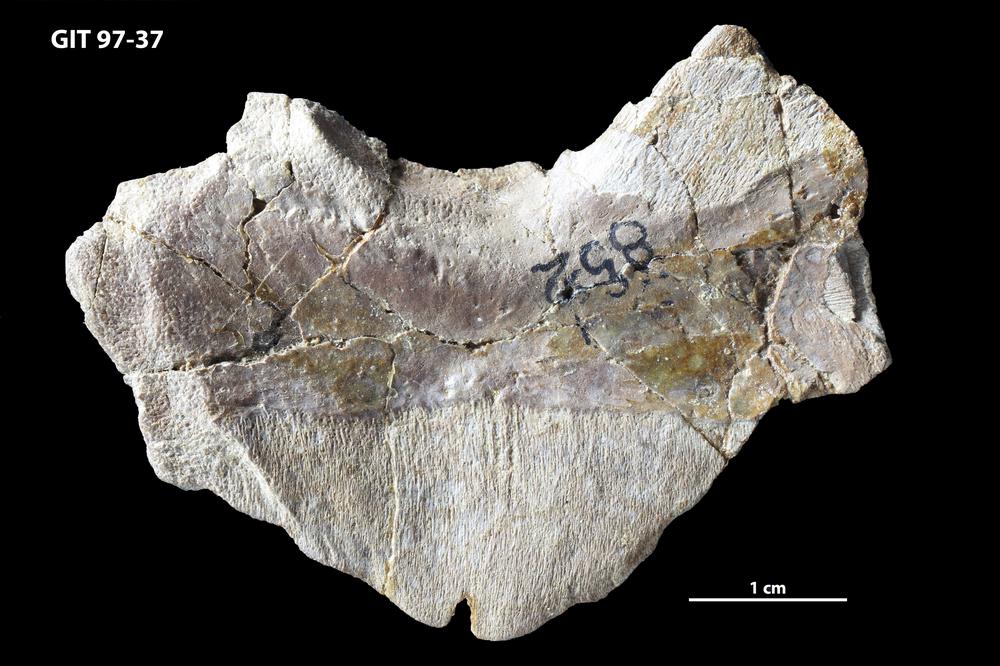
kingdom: Animalia
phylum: Chordata
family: Holonematidae
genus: Holonema
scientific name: Holonema
